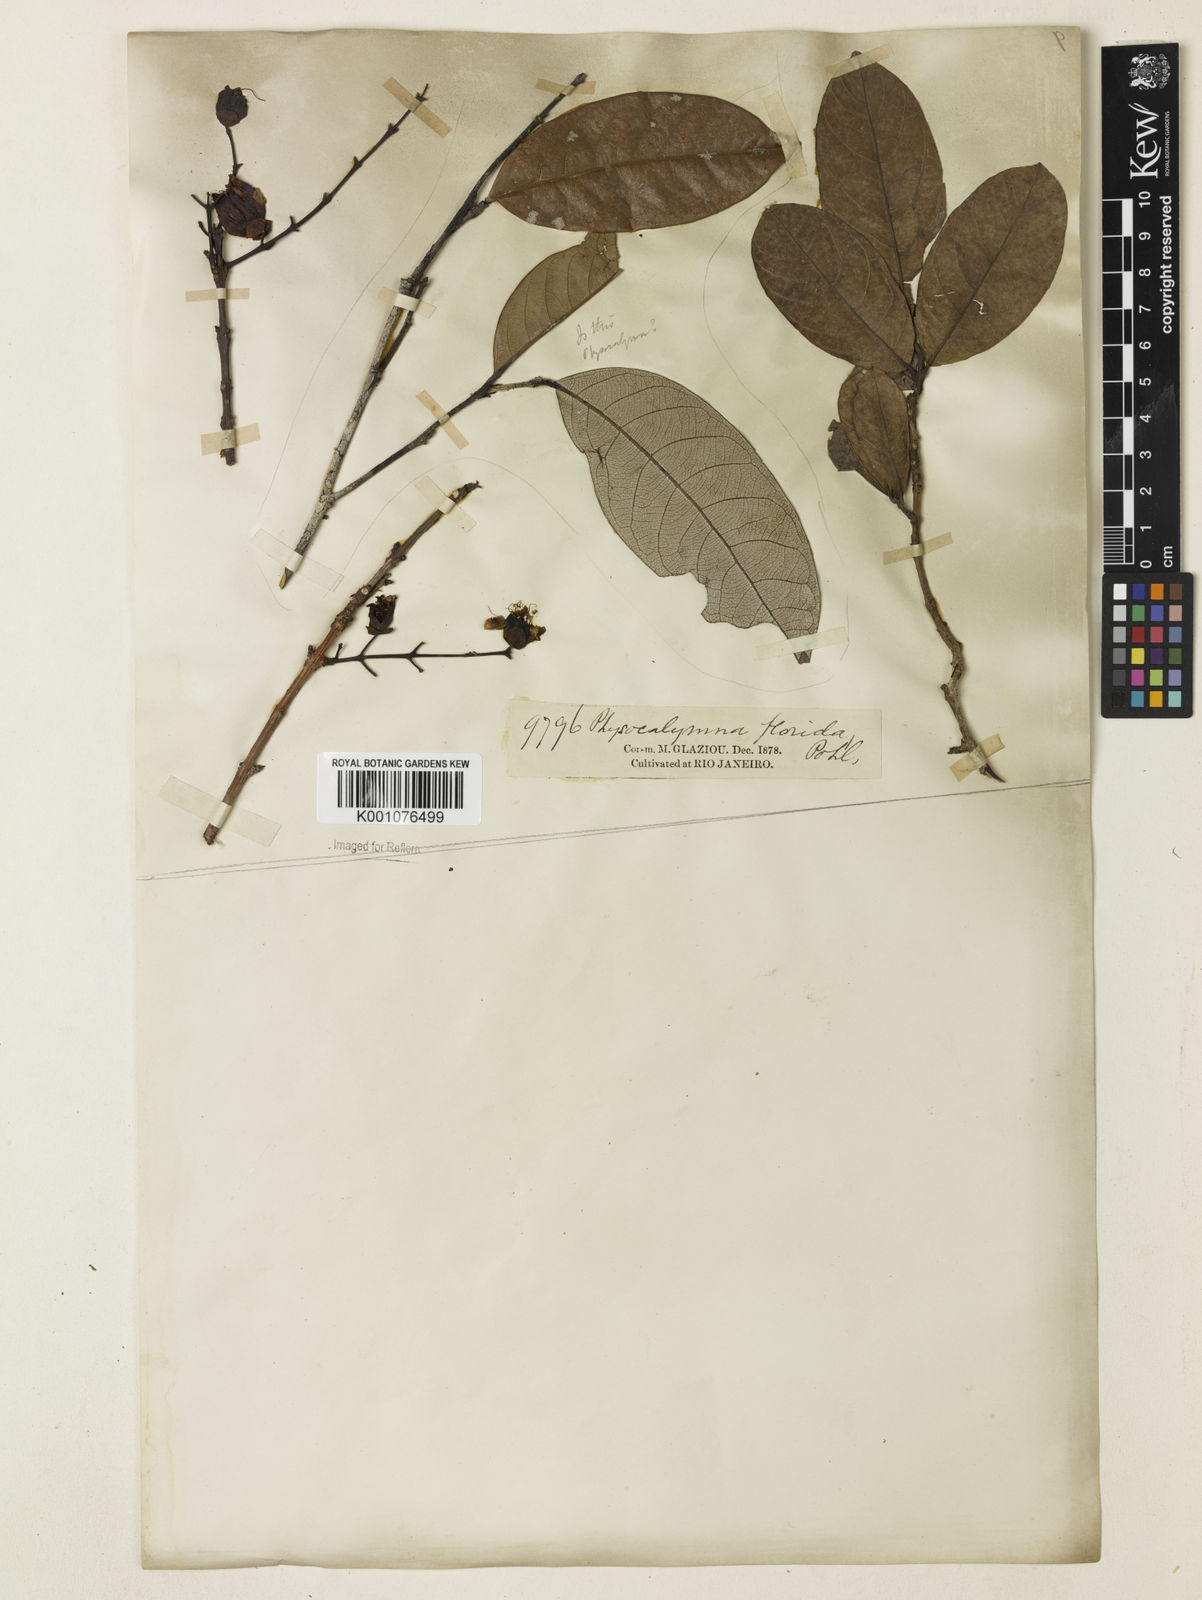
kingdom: Plantae
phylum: Tracheophyta
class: Magnoliopsida
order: Myrtales
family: Lythraceae
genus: Physocalymma
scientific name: Physocalymma scaberrimum
